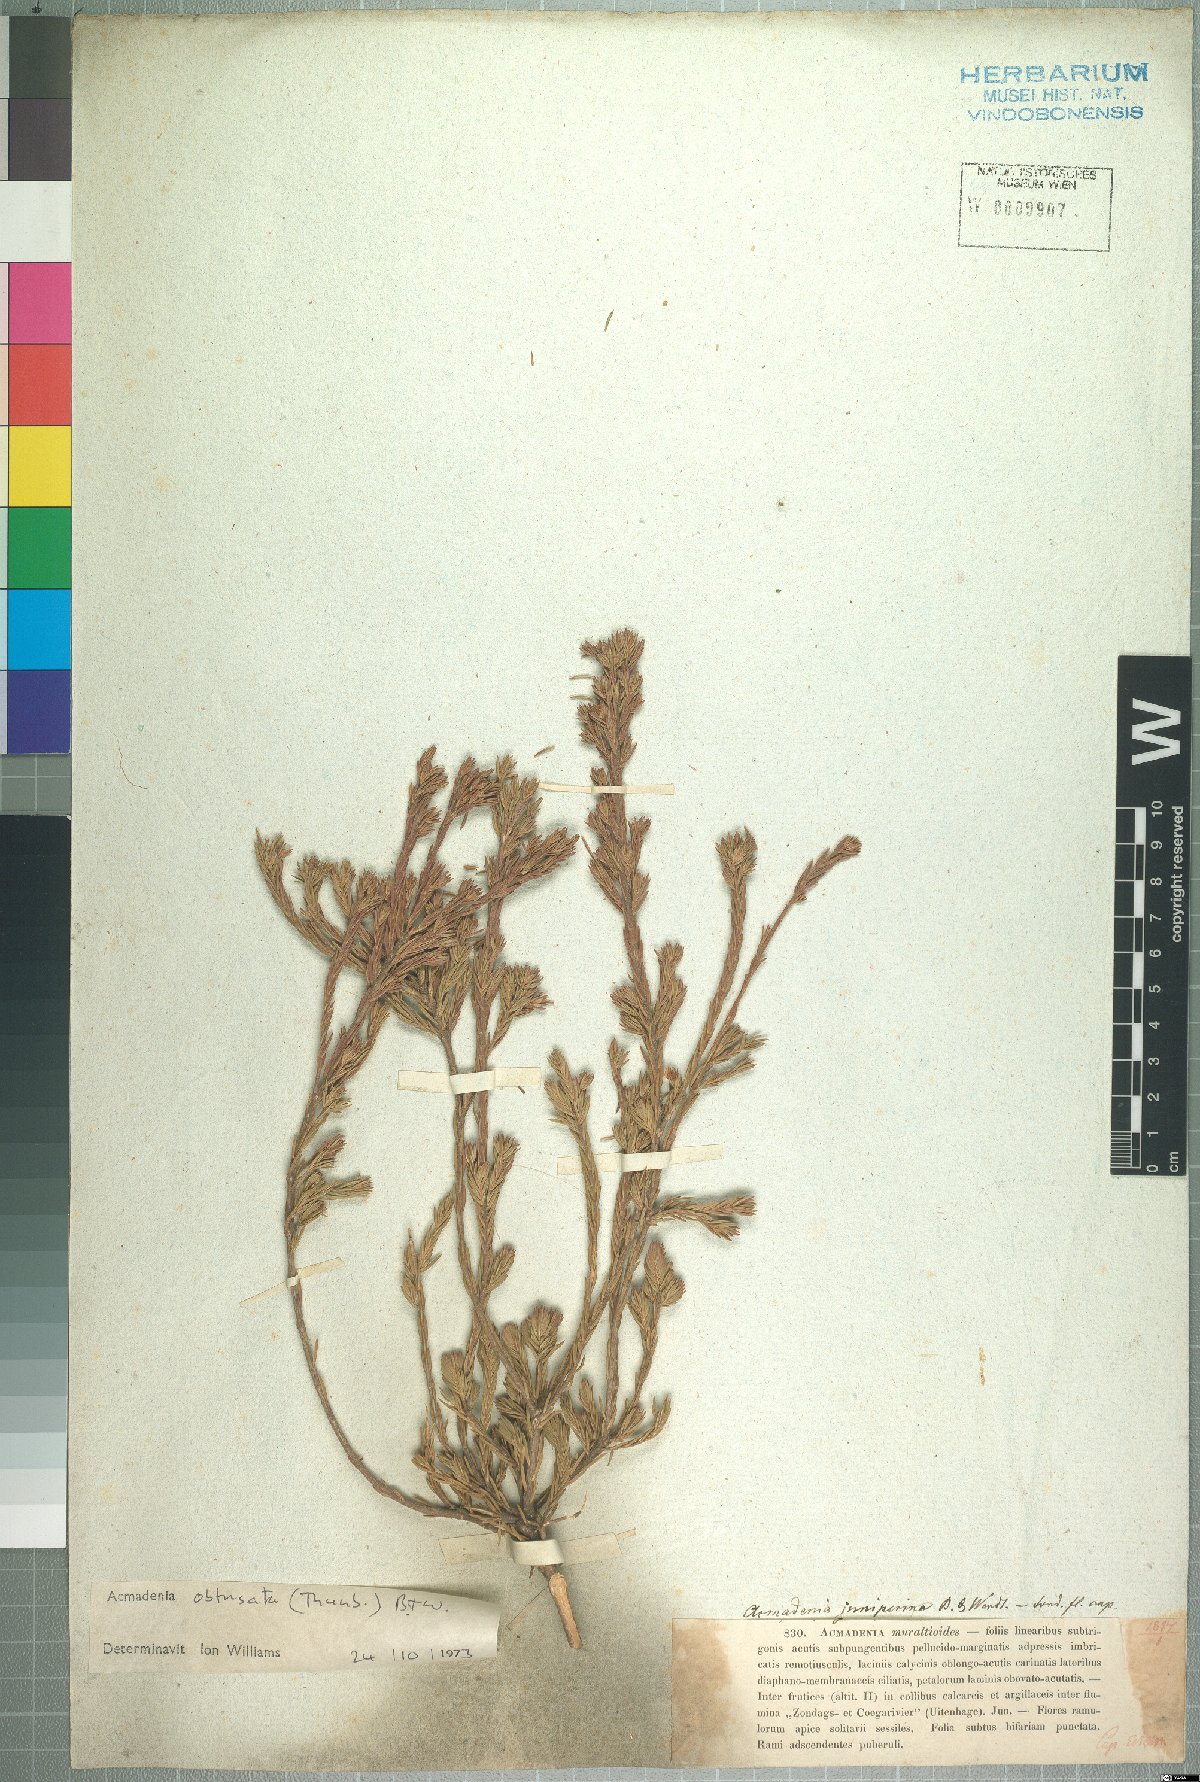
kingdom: Plantae
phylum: Tracheophyta
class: Magnoliopsida
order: Sapindales
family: Rutaceae
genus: Acmadenia
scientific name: Acmadenia obtusata
